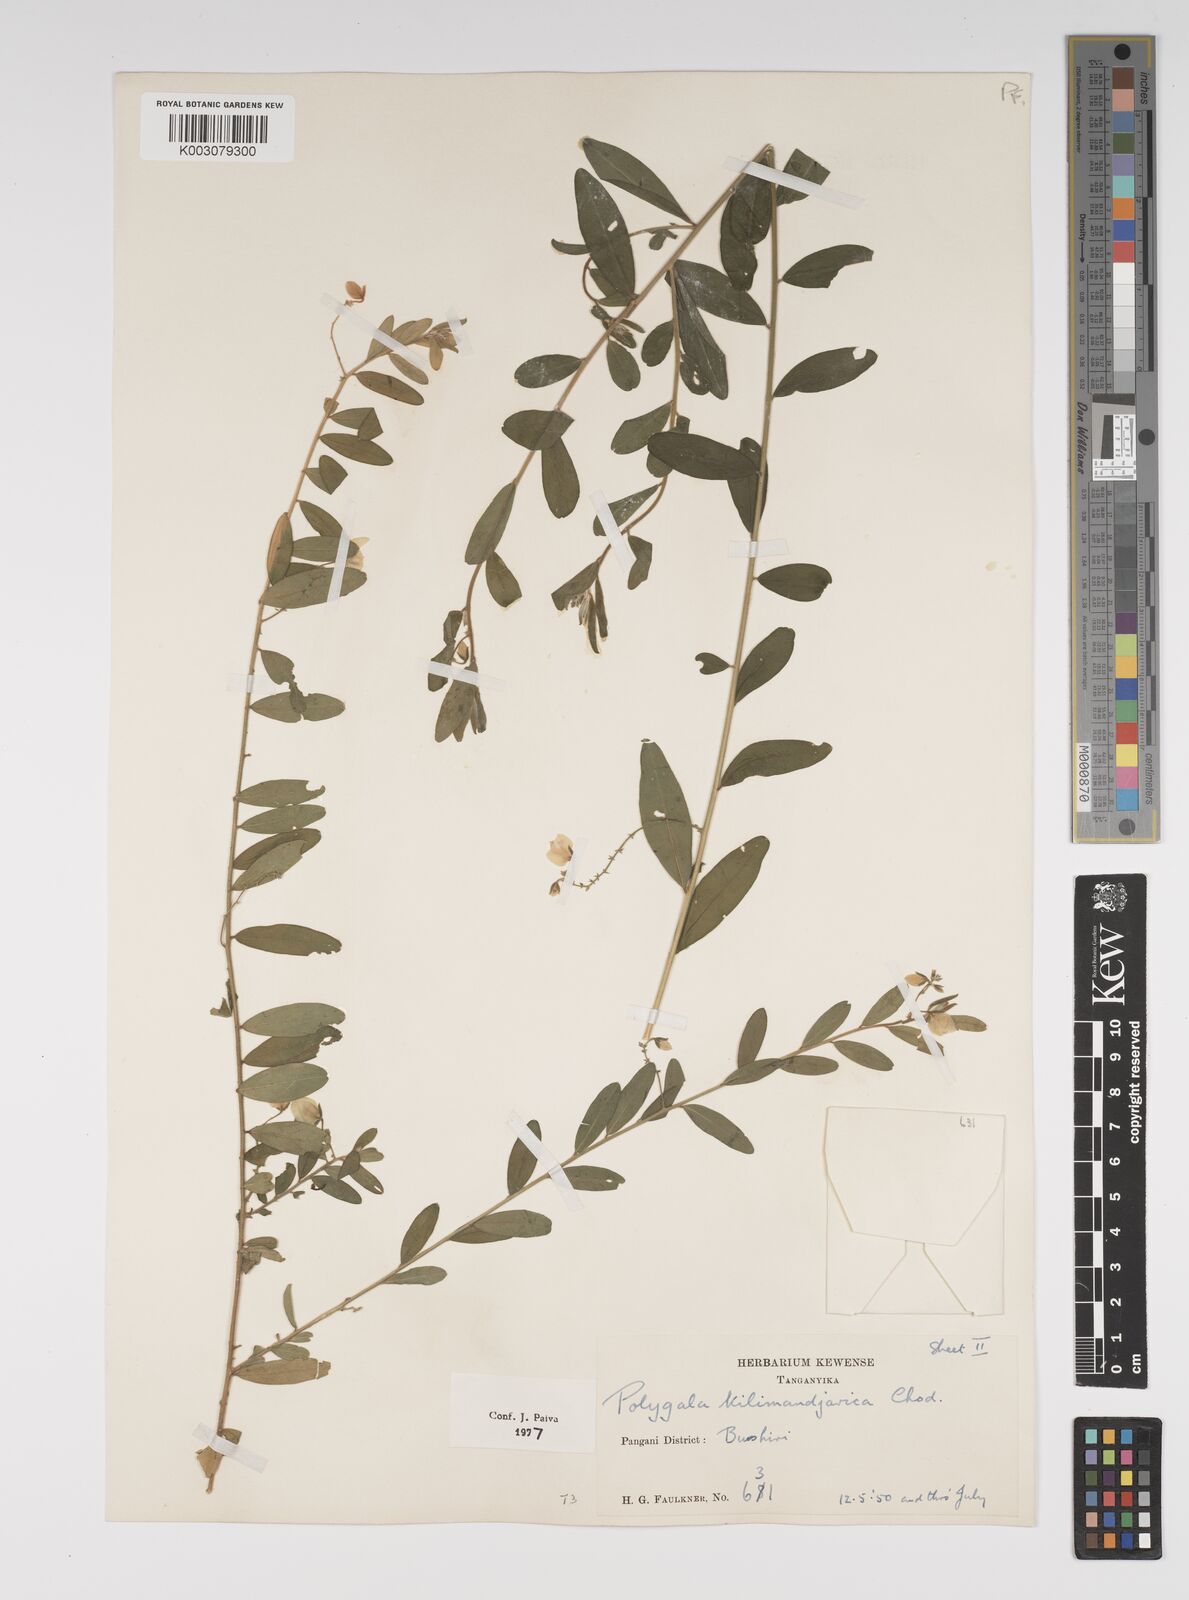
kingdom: Plantae
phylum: Tracheophyta
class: Magnoliopsida
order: Fabales
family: Polygalaceae
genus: Polygala
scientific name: Polygala kilimandjarica
